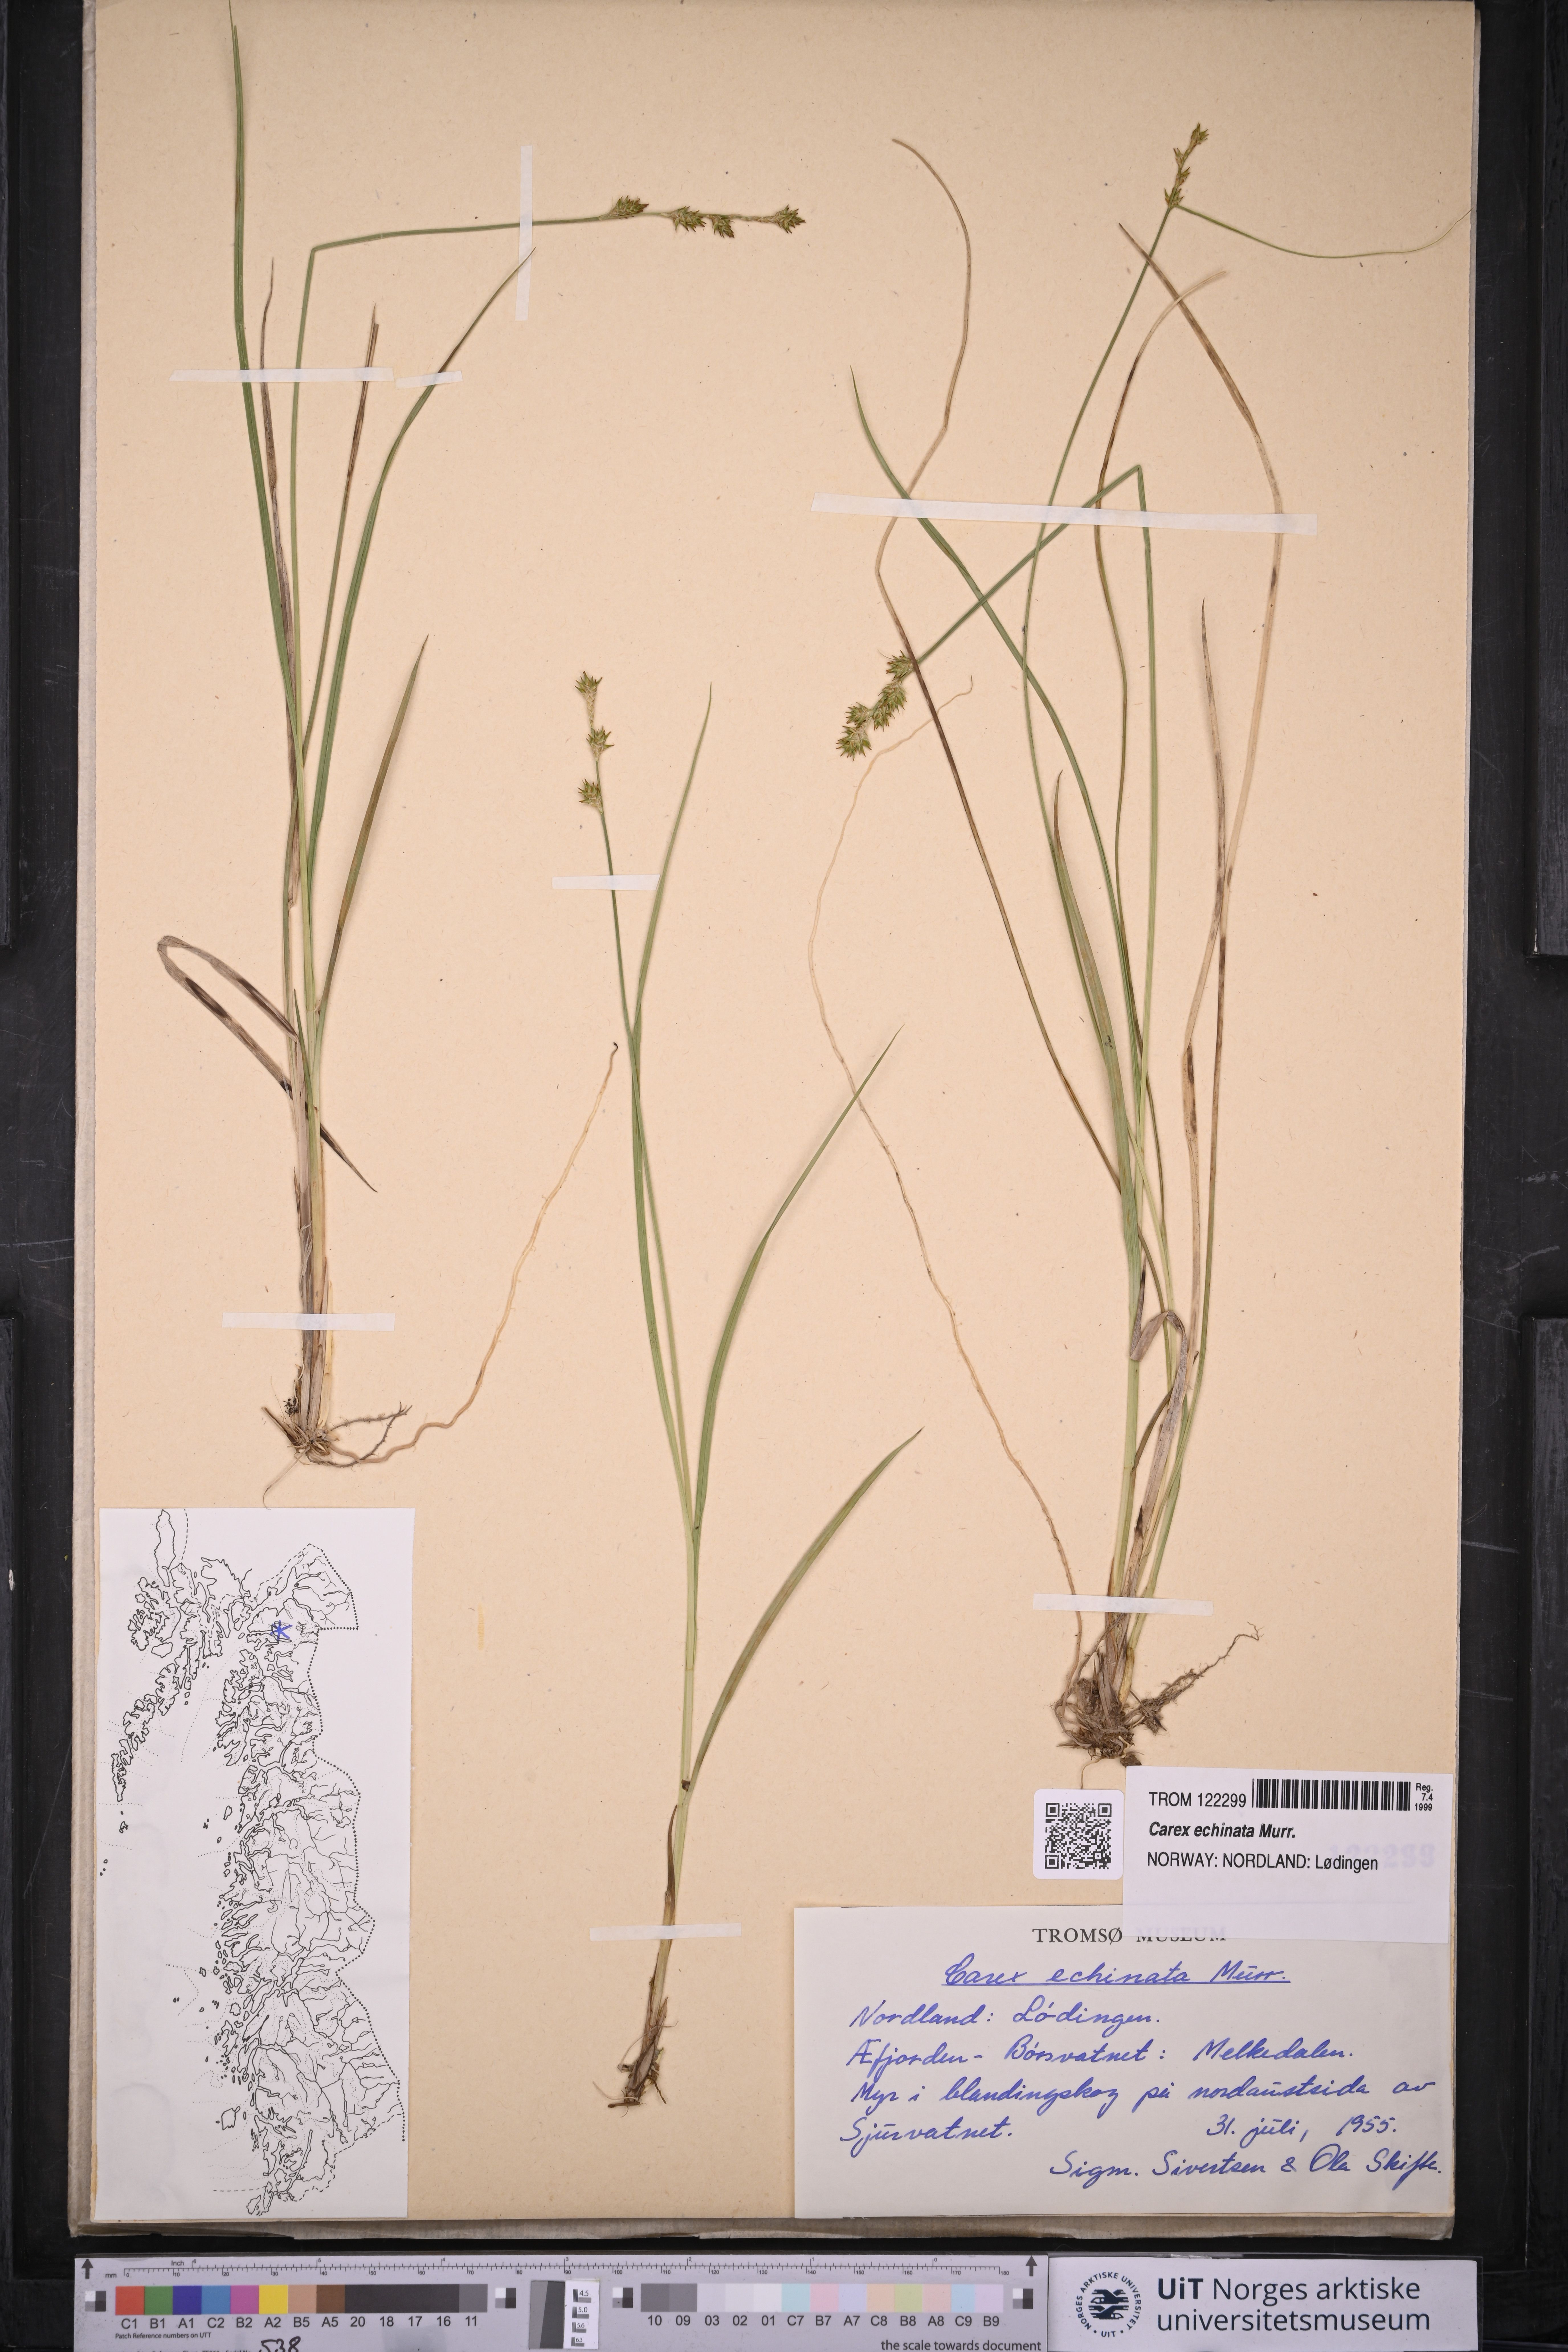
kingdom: Plantae
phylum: Tracheophyta
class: Liliopsida
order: Poales
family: Cyperaceae
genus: Carex
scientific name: Carex echinata
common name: Star sedge
